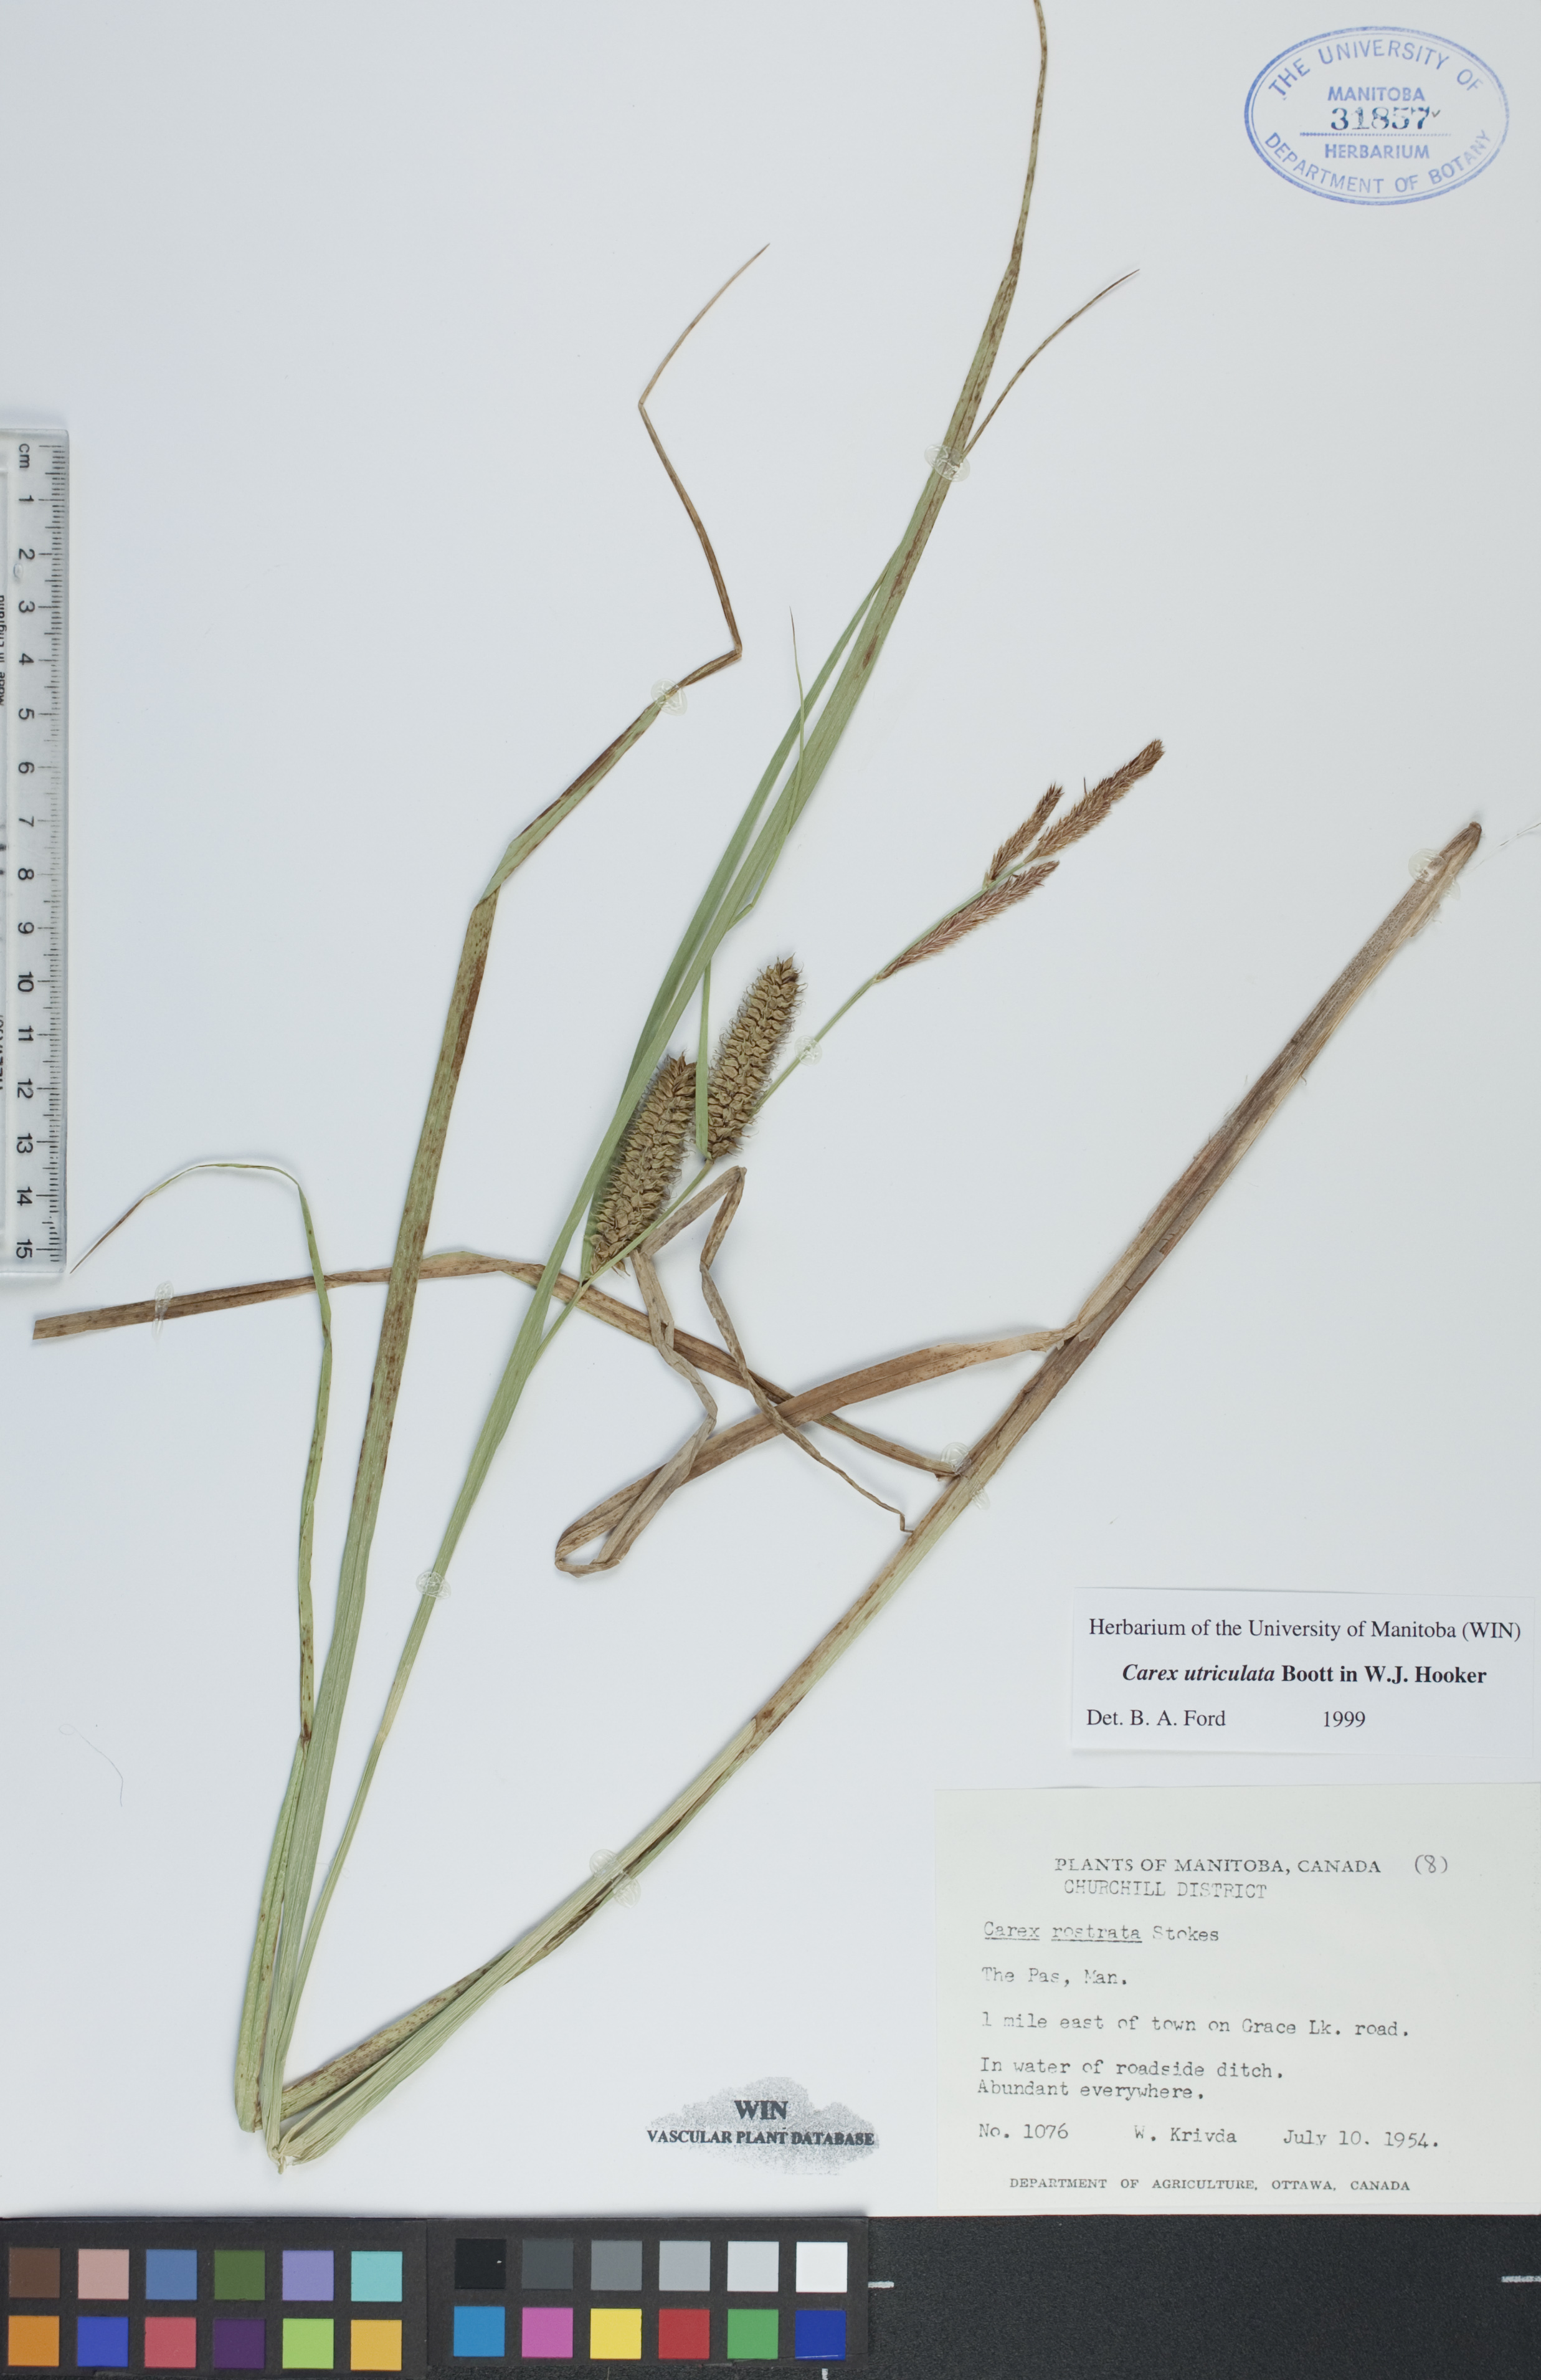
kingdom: Plantae
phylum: Tracheophyta
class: Liliopsida
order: Poales
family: Cyperaceae
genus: Carex
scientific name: Carex utriculata
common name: Beaked sedge
